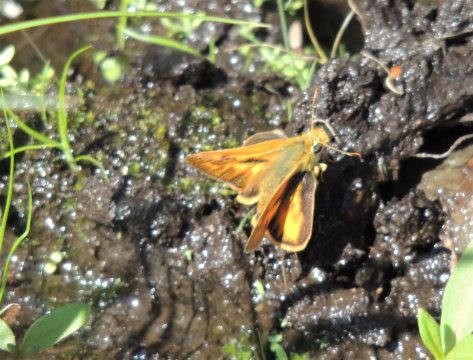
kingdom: Animalia
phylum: Arthropoda
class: Insecta
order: Lepidoptera
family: Hesperiidae
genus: Hesperia
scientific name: Hesperia comma
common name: Western Branded Skipper
